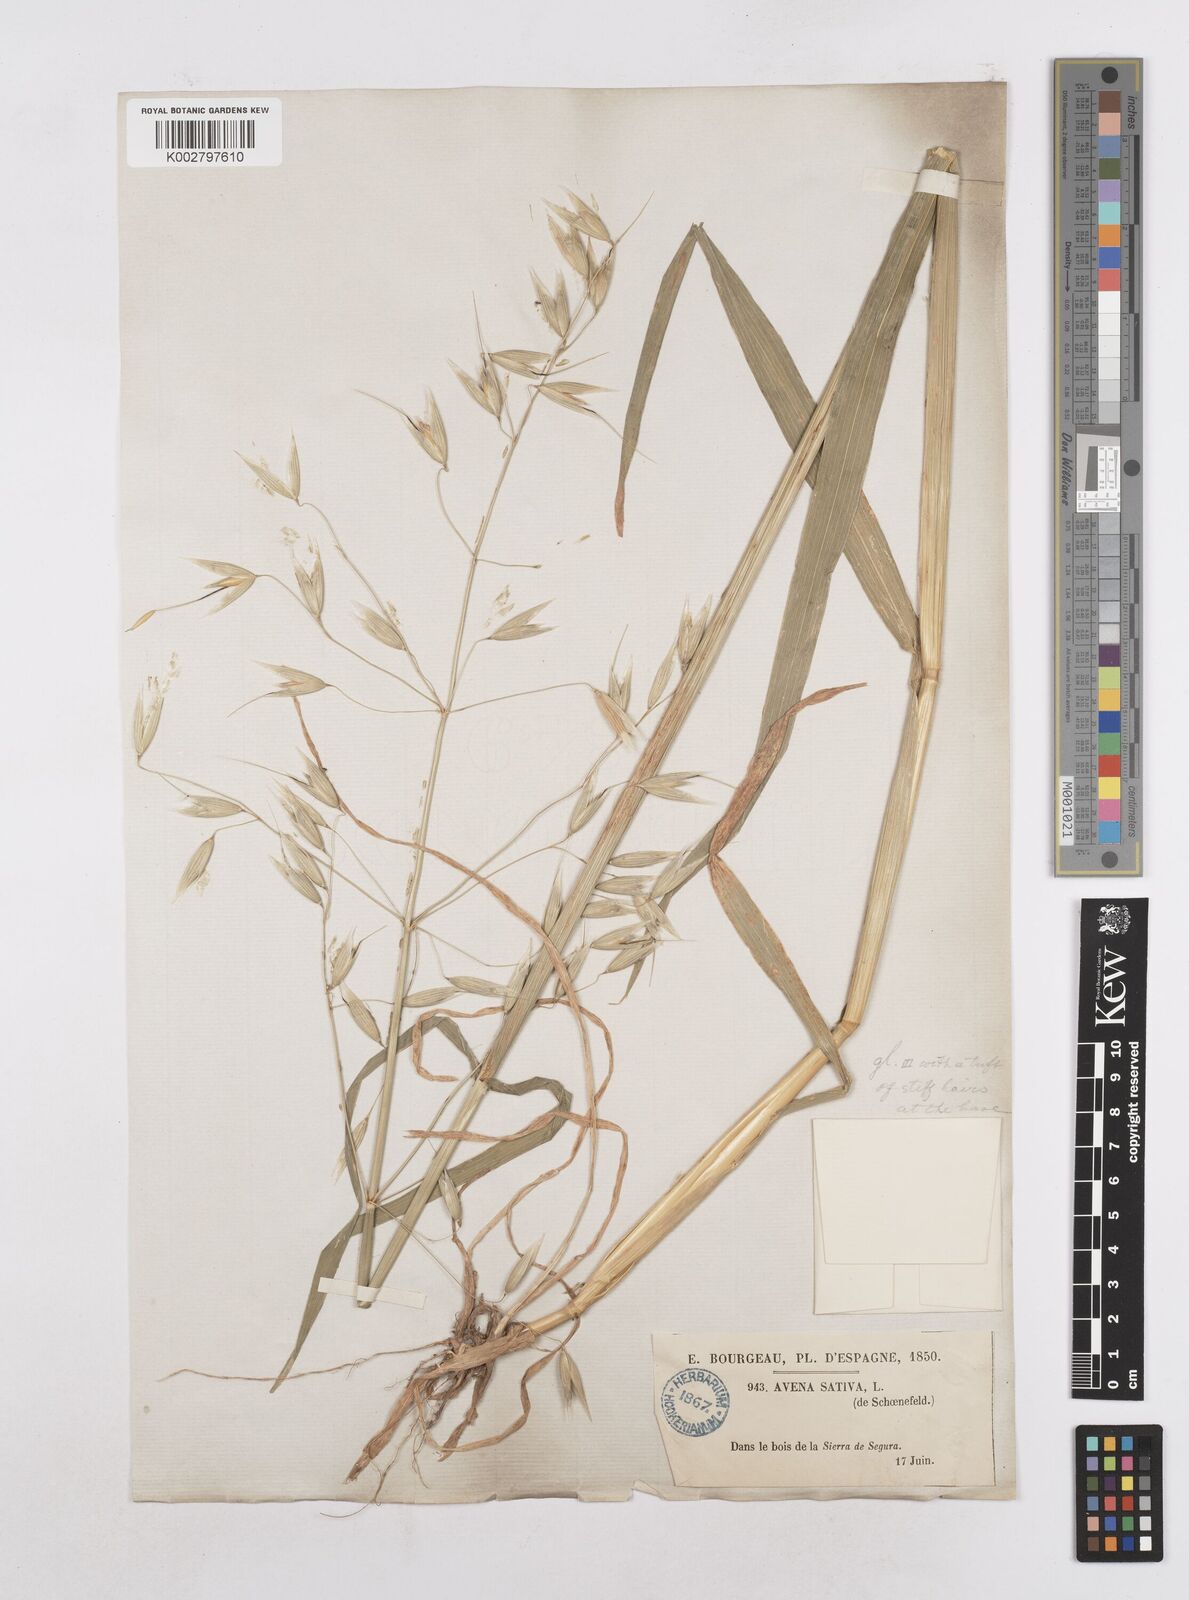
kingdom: Plantae
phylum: Tracheophyta
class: Liliopsida
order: Poales
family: Poaceae
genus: Avena
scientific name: Avena sativa
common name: Oat
